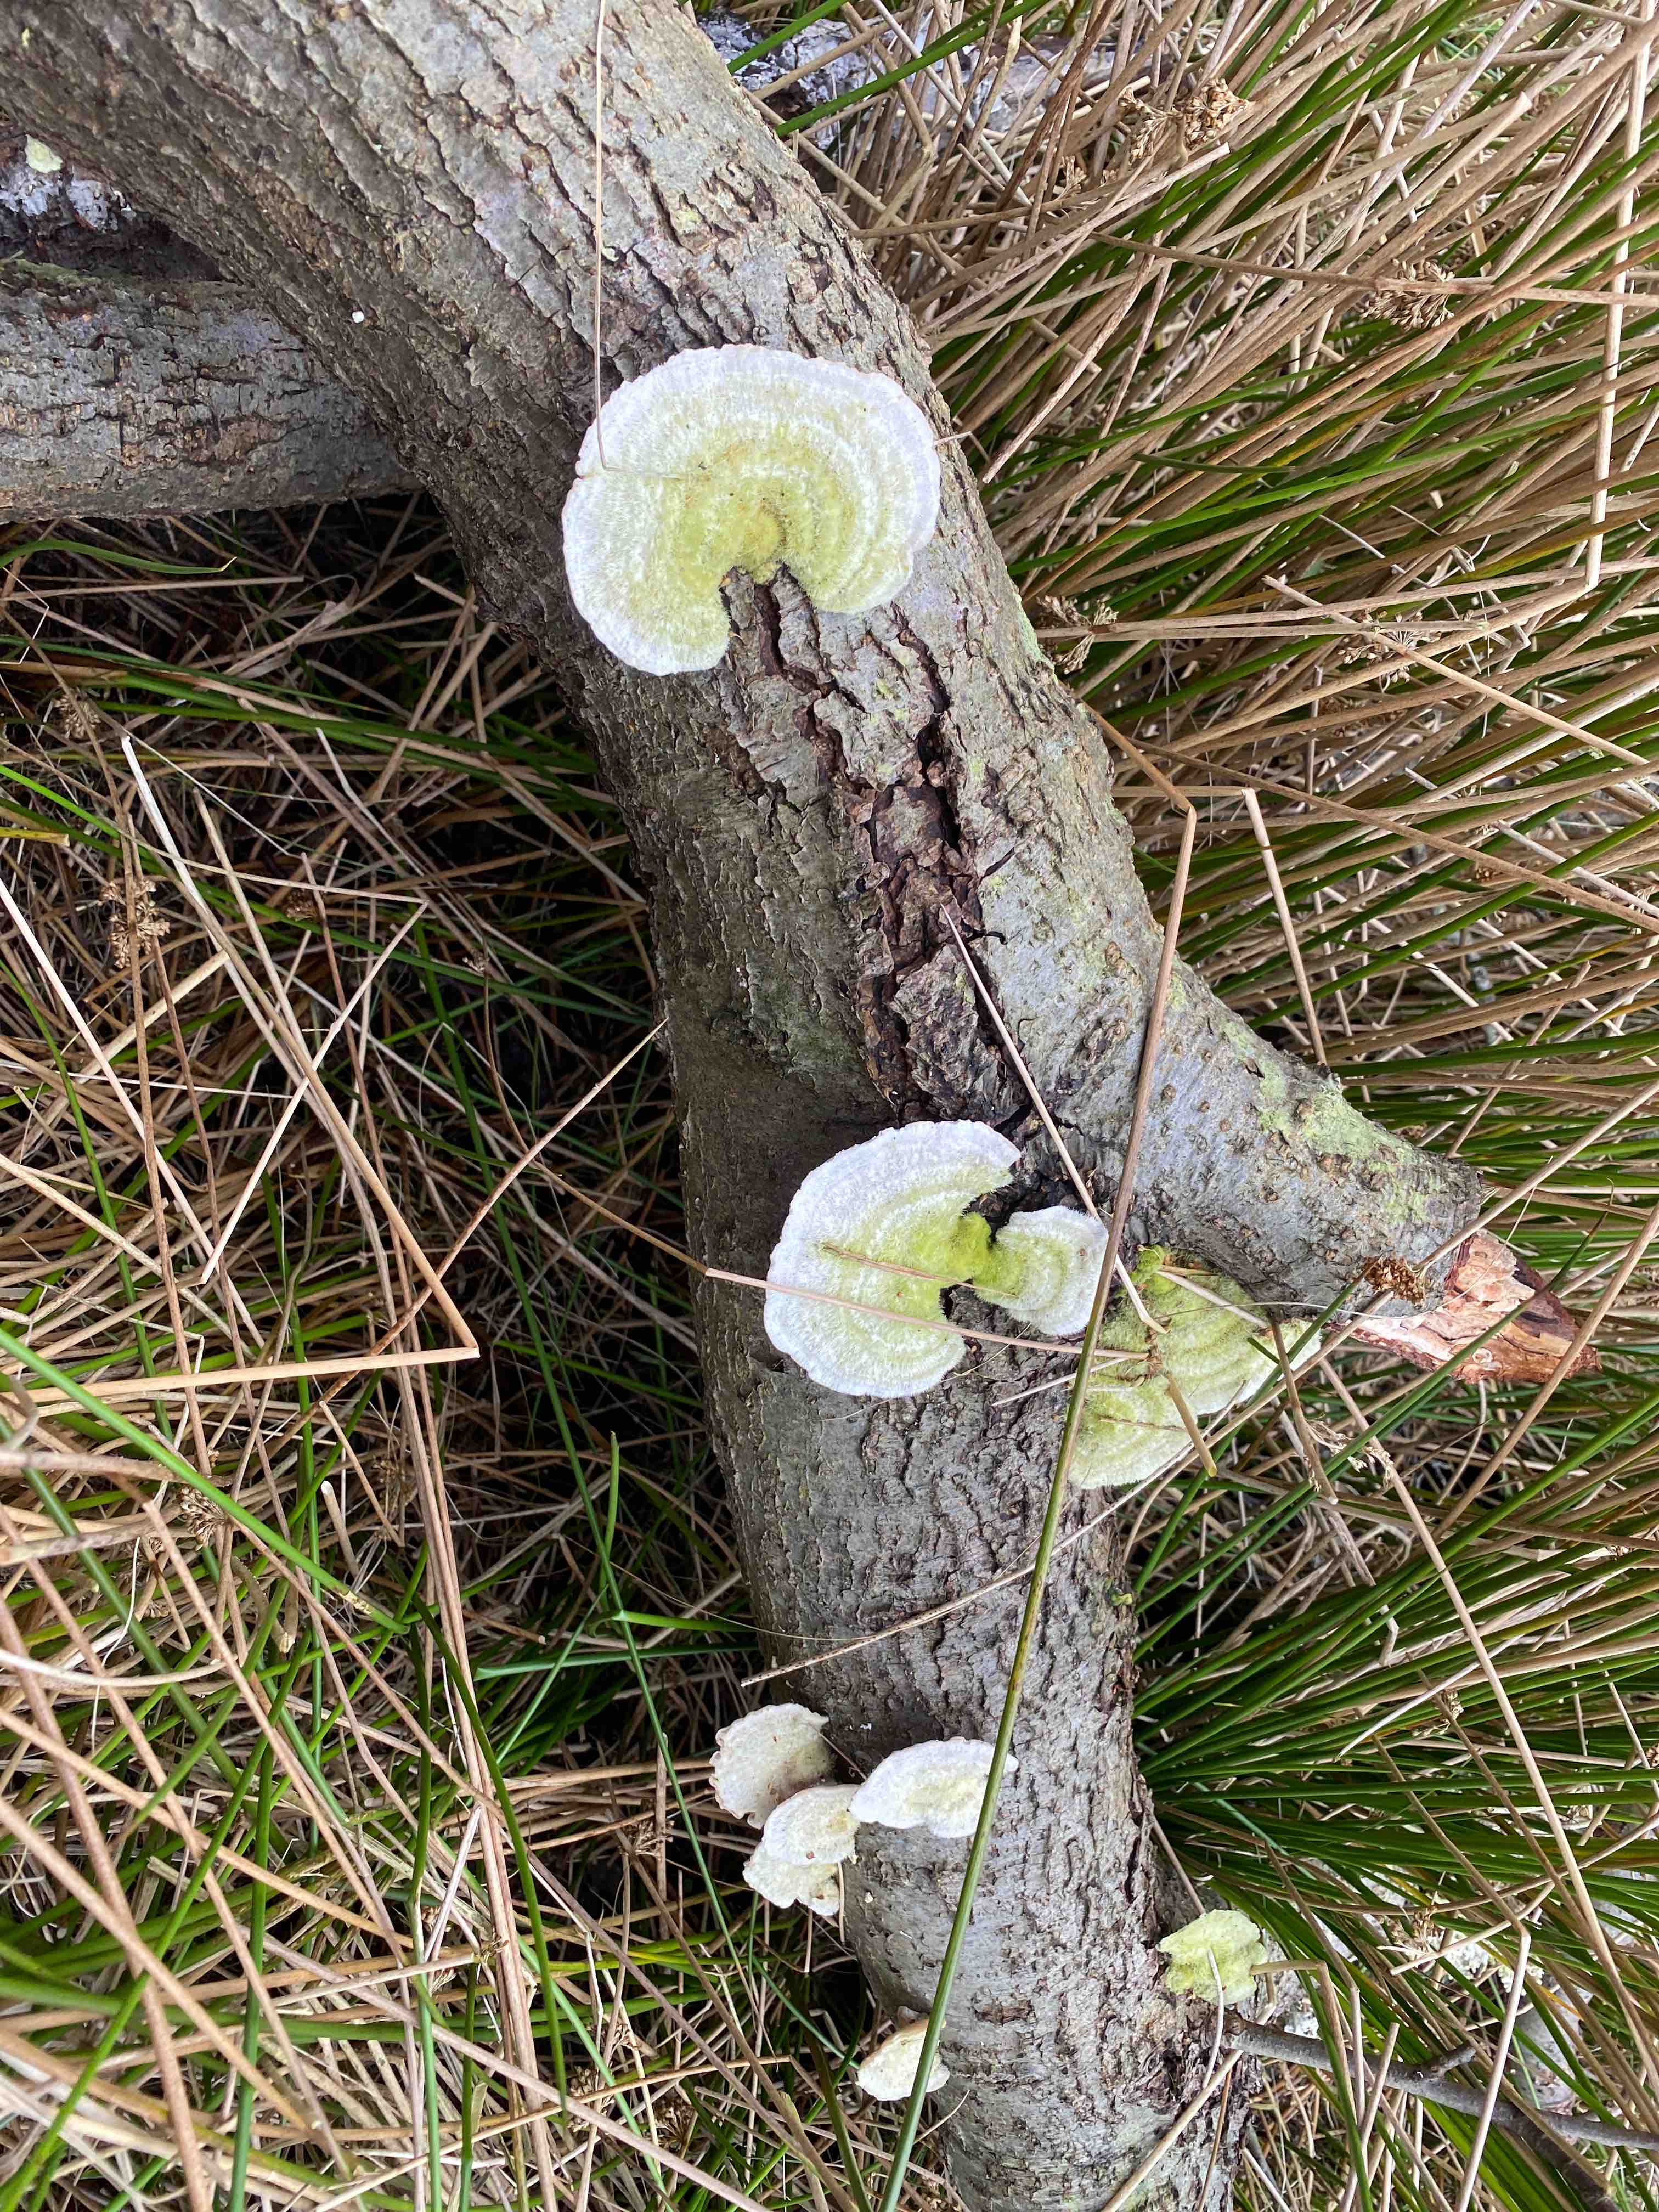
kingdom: Fungi
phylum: Basidiomycota
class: Agaricomycetes
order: Polyporales
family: Polyporaceae
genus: Trametes
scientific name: Trametes hirsuta
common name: håret læderporesvamp
